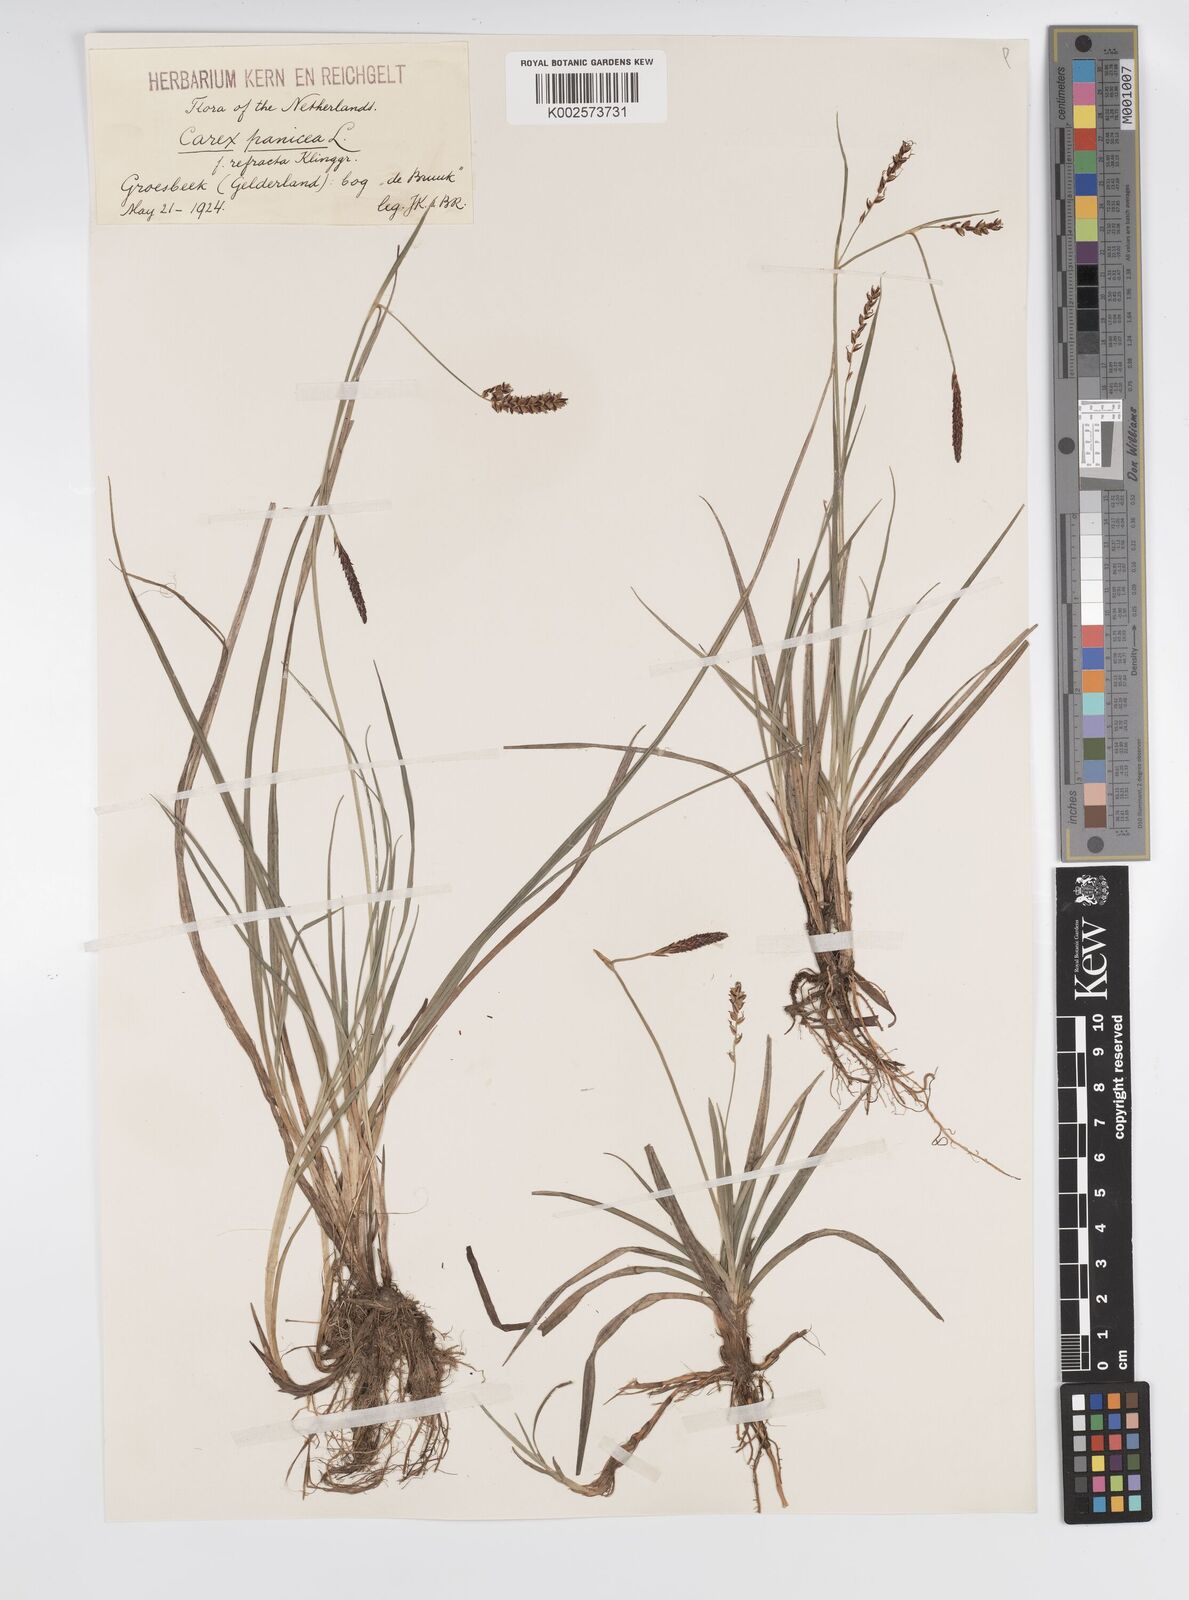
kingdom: Plantae
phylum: Tracheophyta
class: Liliopsida
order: Poales
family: Cyperaceae
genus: Carex
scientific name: Carex panicea
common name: Carnation sedge
